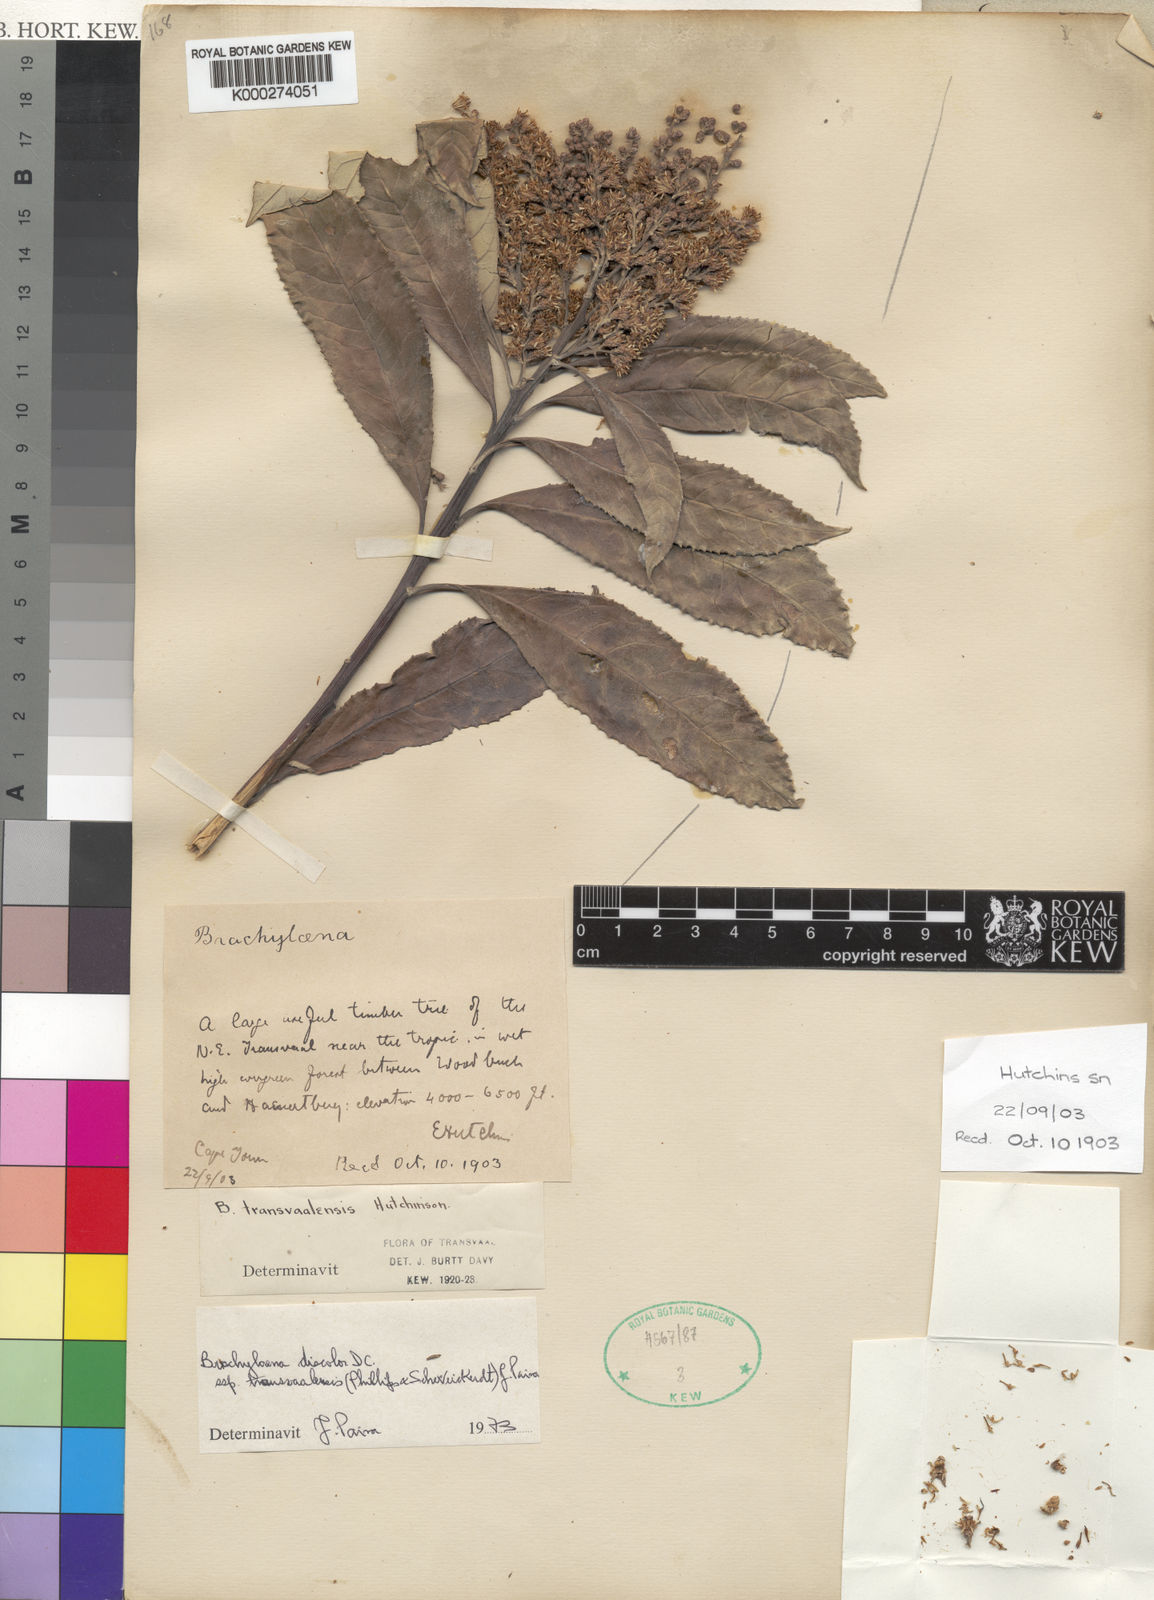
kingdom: Plantae
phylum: Tracheophyta
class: Magnoliopsida
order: Asterales
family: Asteraceae
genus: Brachylaena
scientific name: Brachylaena discolor
